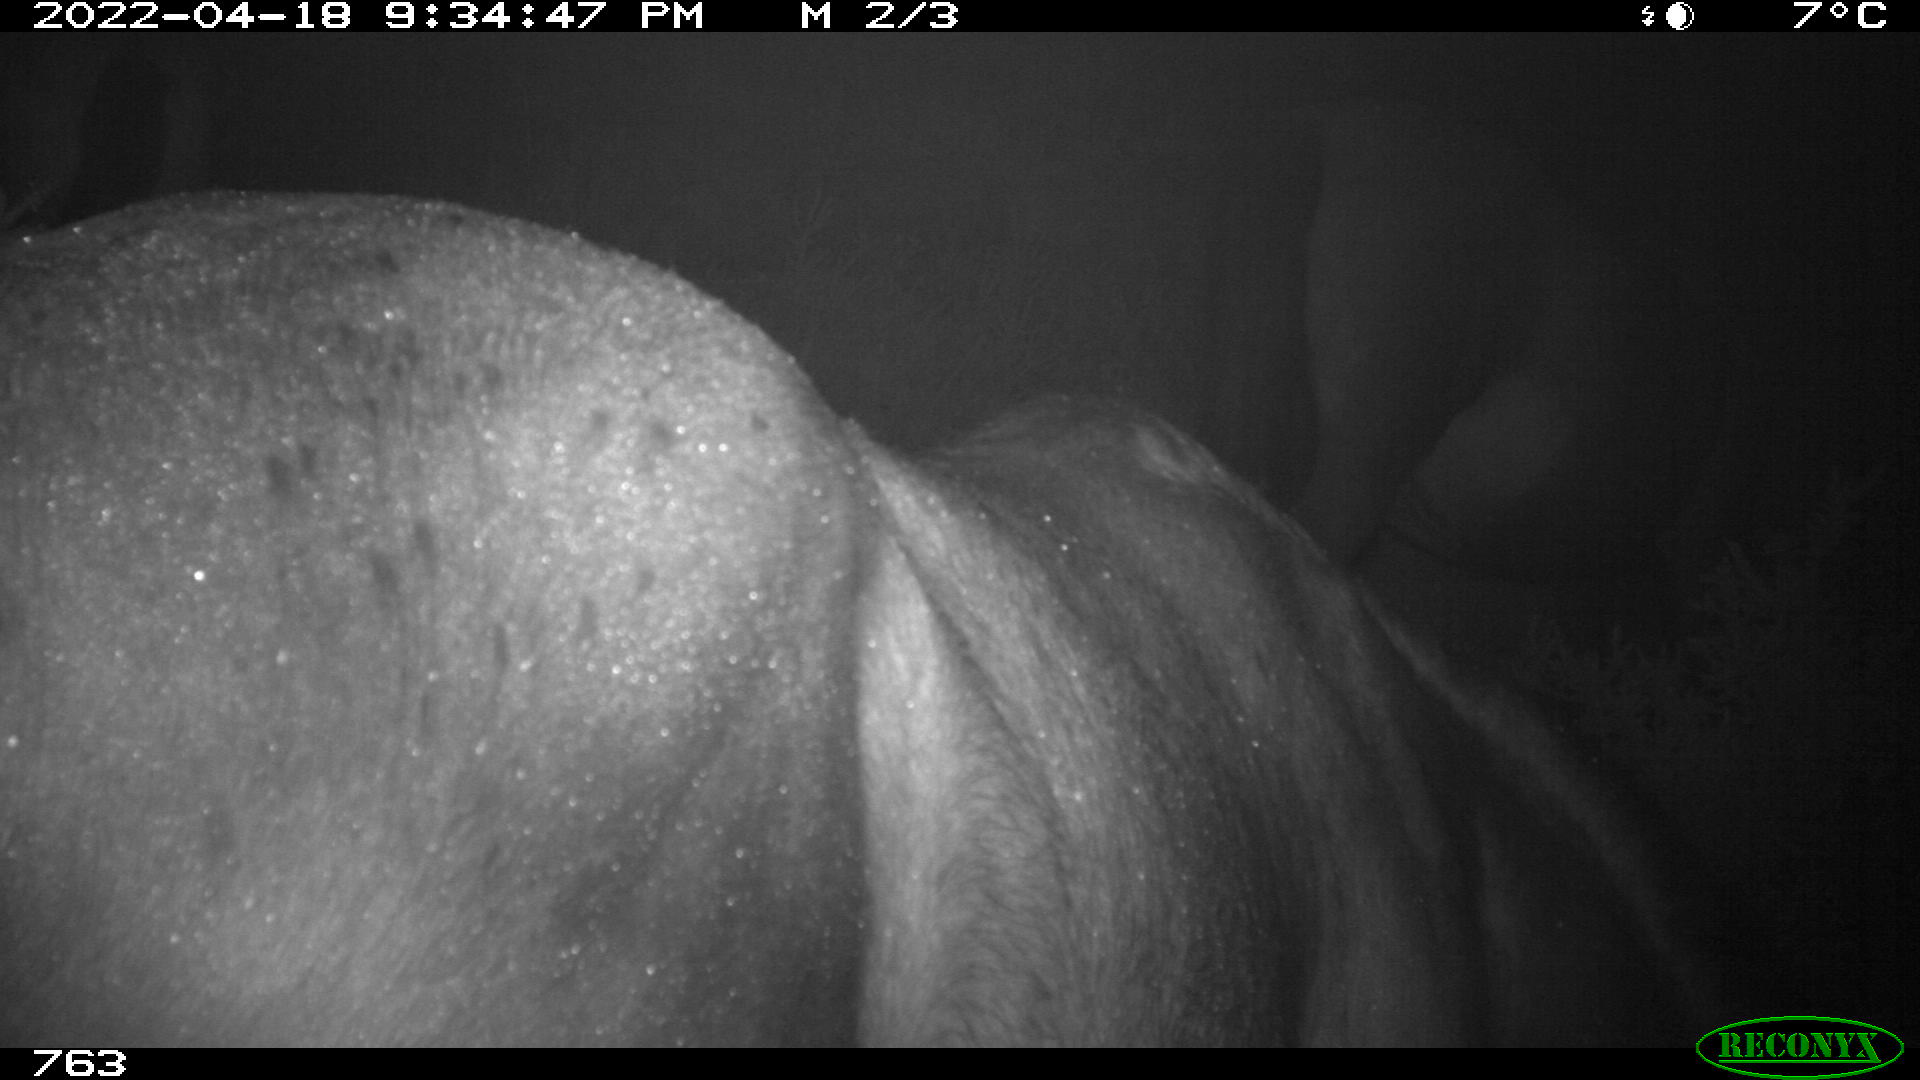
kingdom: Animalia
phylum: Chordata
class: Mammalia
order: Perissodactyla
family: Equidae
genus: Equus
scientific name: Equus caballus
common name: Horse
